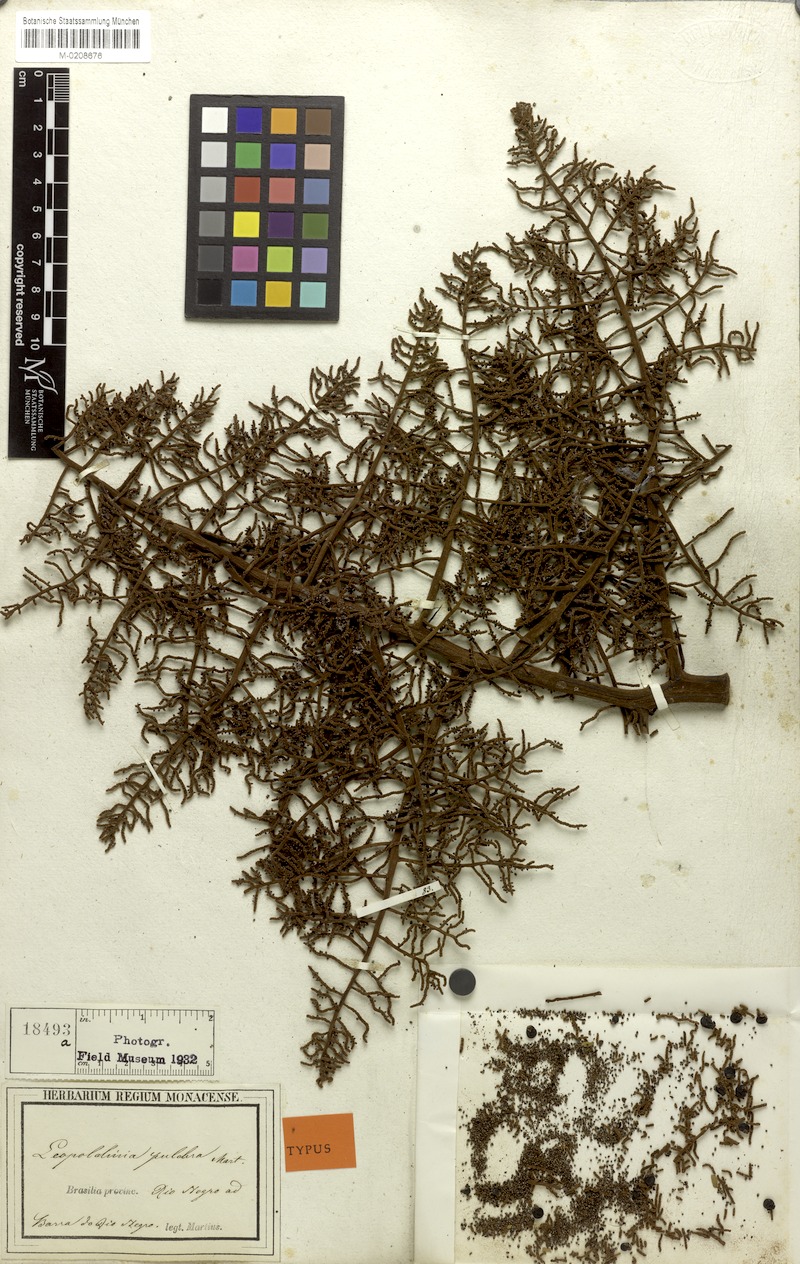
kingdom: Plantae
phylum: Tracheophyta
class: Liliopsida
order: Arecales
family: Arecaceae
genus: Leopoldinia
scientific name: Leopoldinia pulchra
